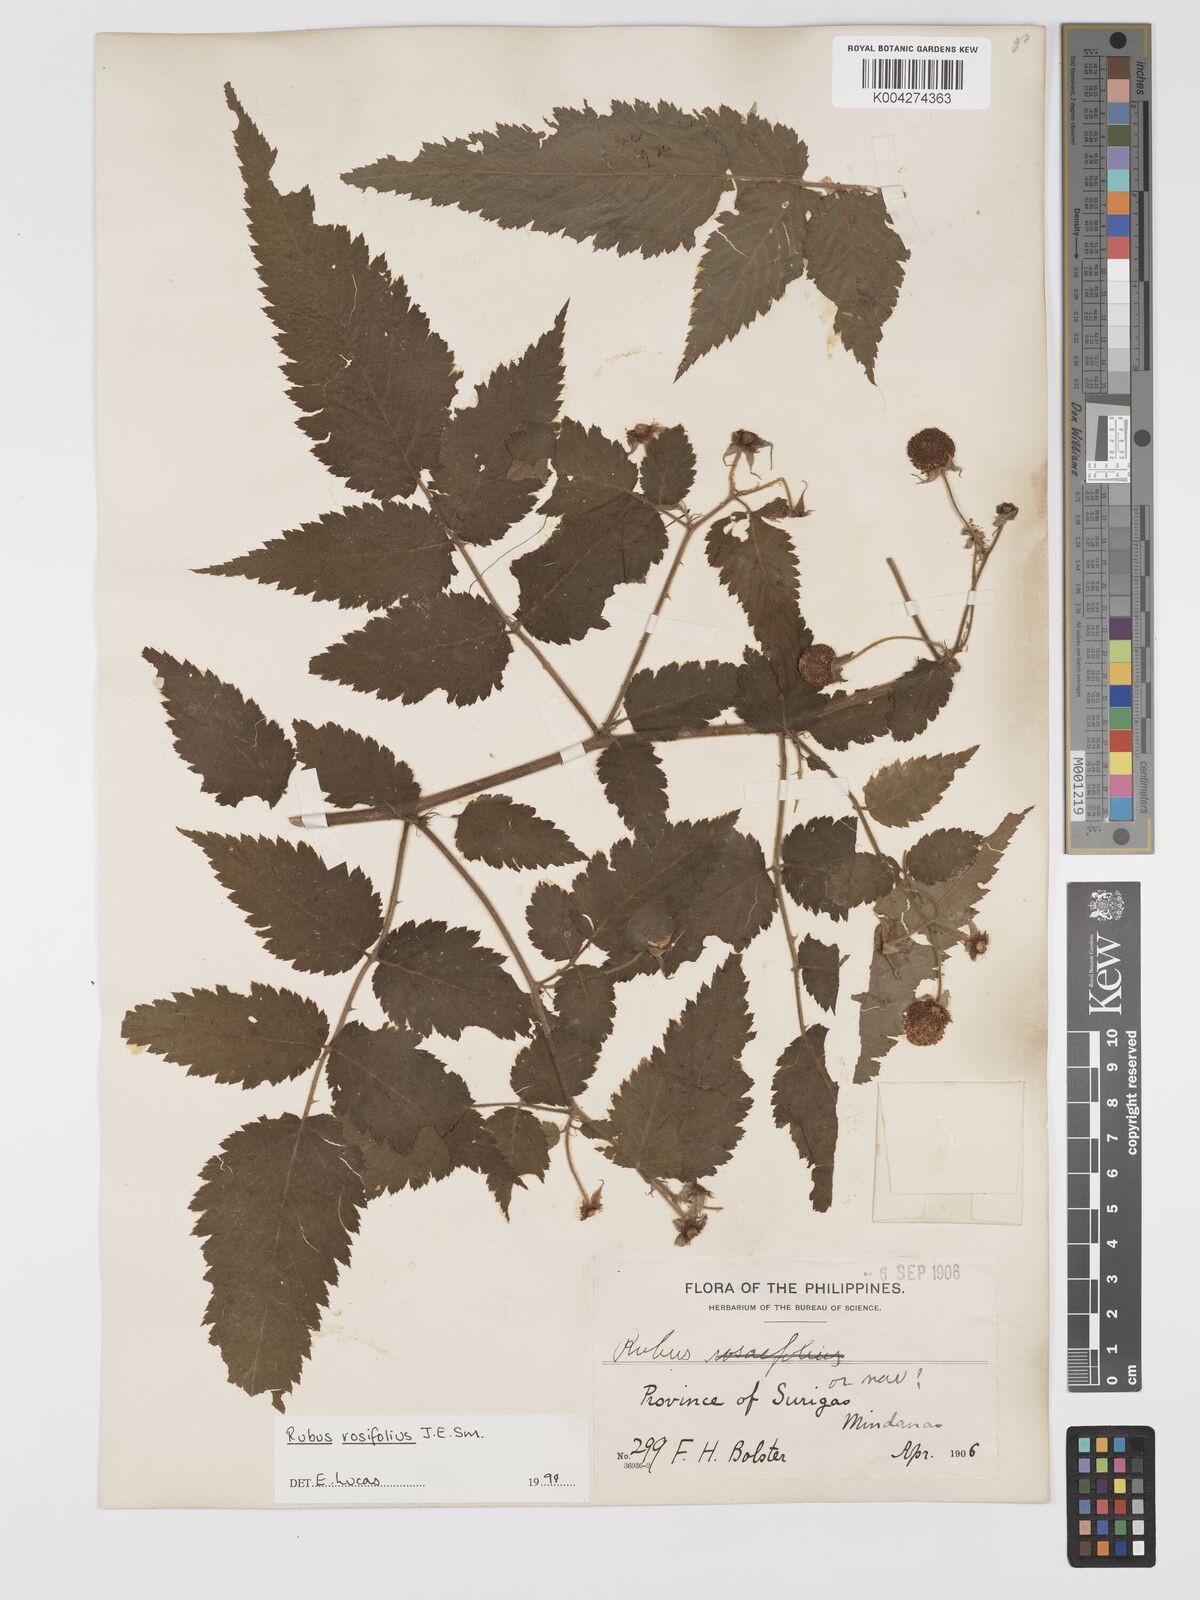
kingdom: Plantae
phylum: Tracheophyta
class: Magnoliopsida
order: Rosales
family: Rosaceae
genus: Rubus
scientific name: Rubus
